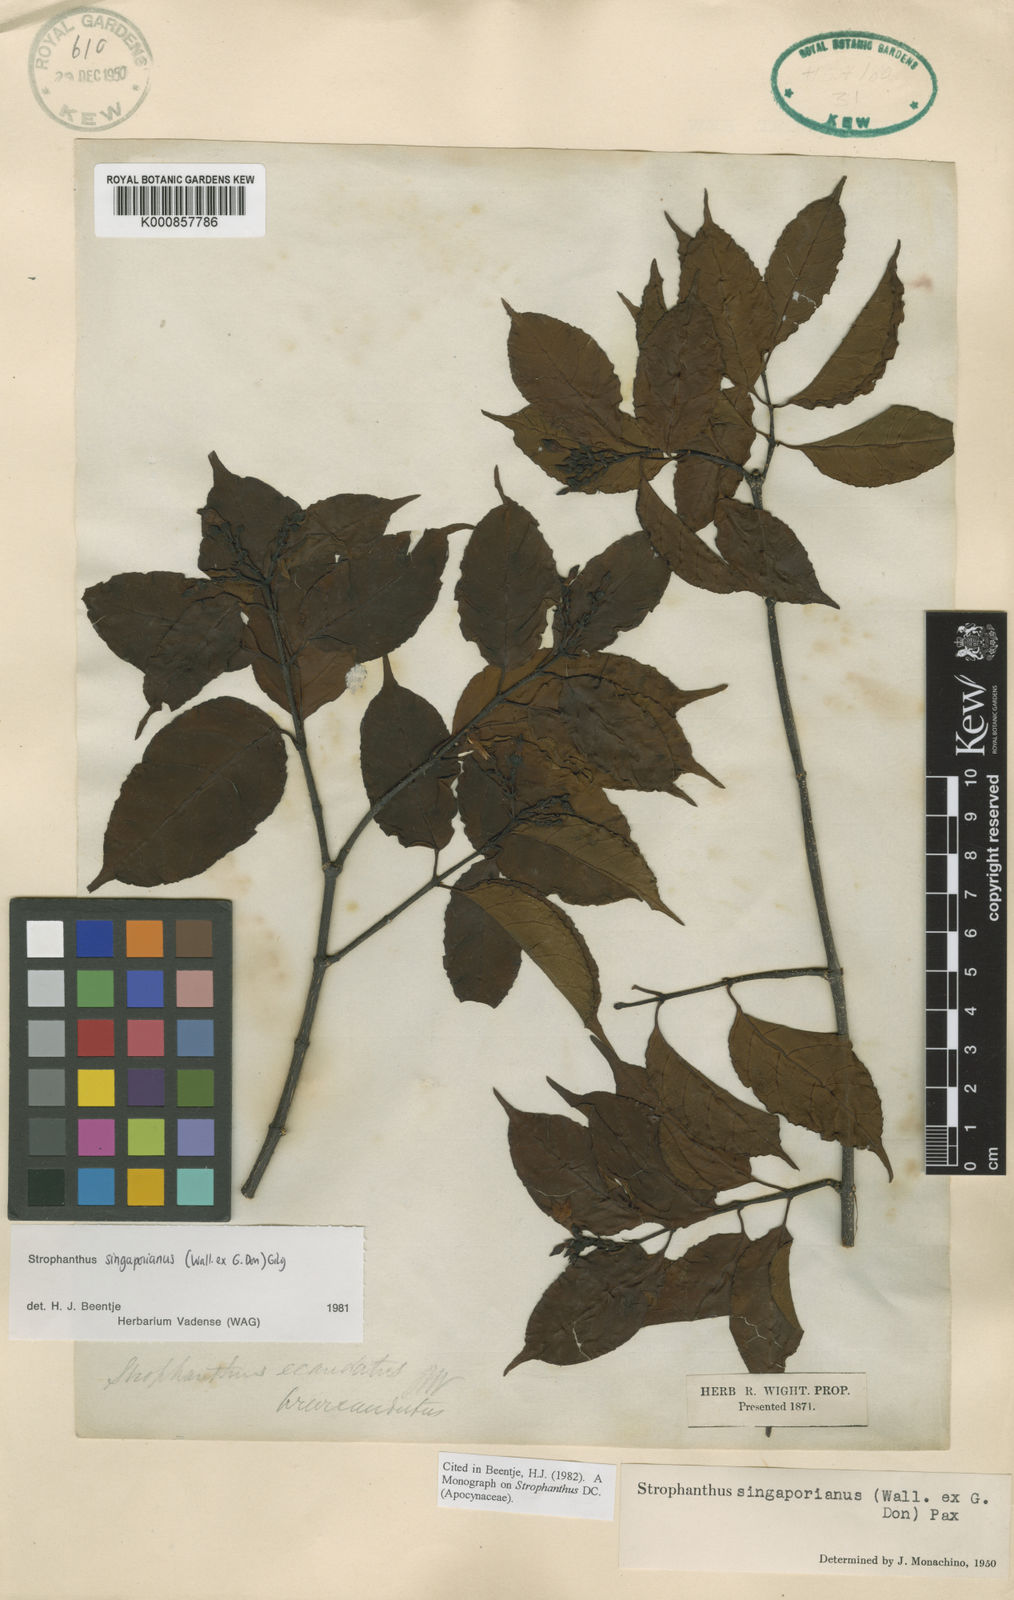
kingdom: Plantae
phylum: Tracheophyta
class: Magnoliopsida
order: Gentianales
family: Apocynaceae
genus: Strophanthus
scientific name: Strophanthus singaporianus
